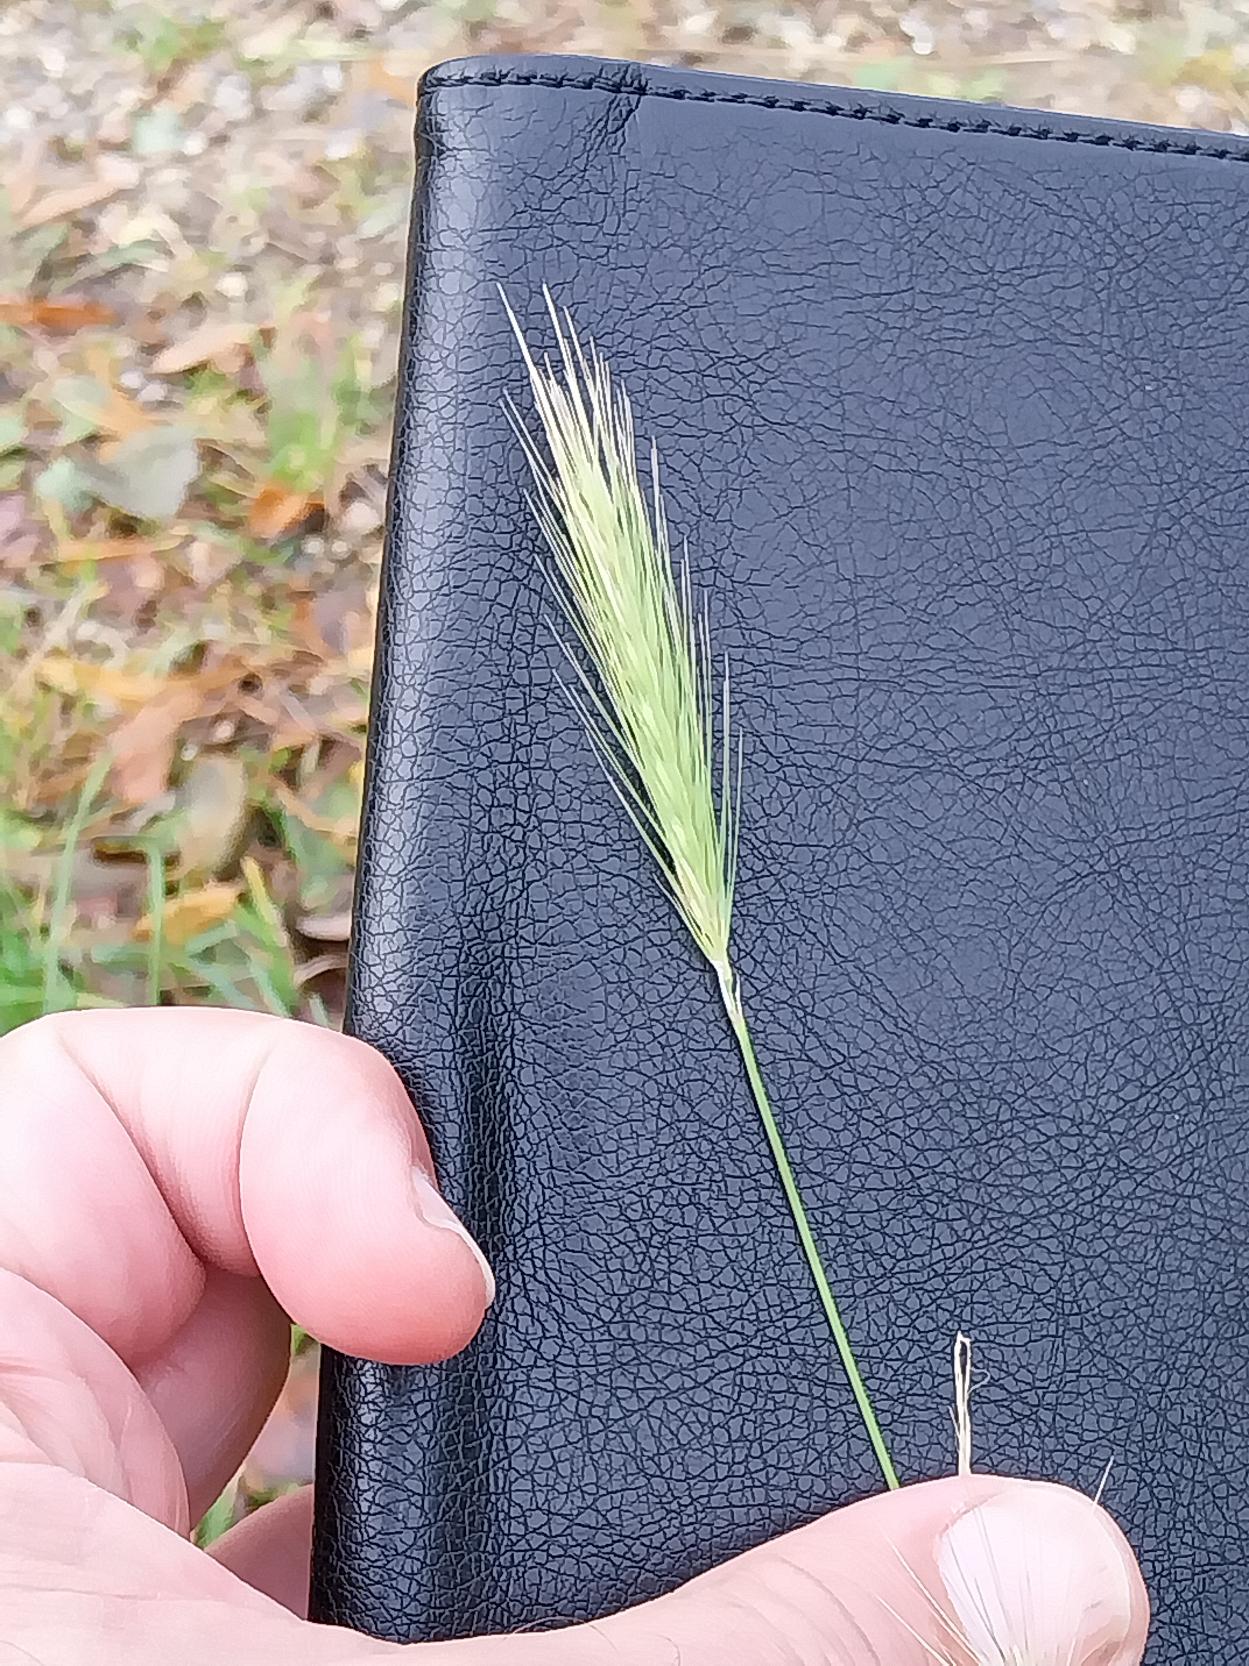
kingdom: Plantae
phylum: Tracheophyta
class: Liliopsida
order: Poales
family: Poaceae
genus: Hordeum
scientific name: Hordeum murinum
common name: Gold byg
